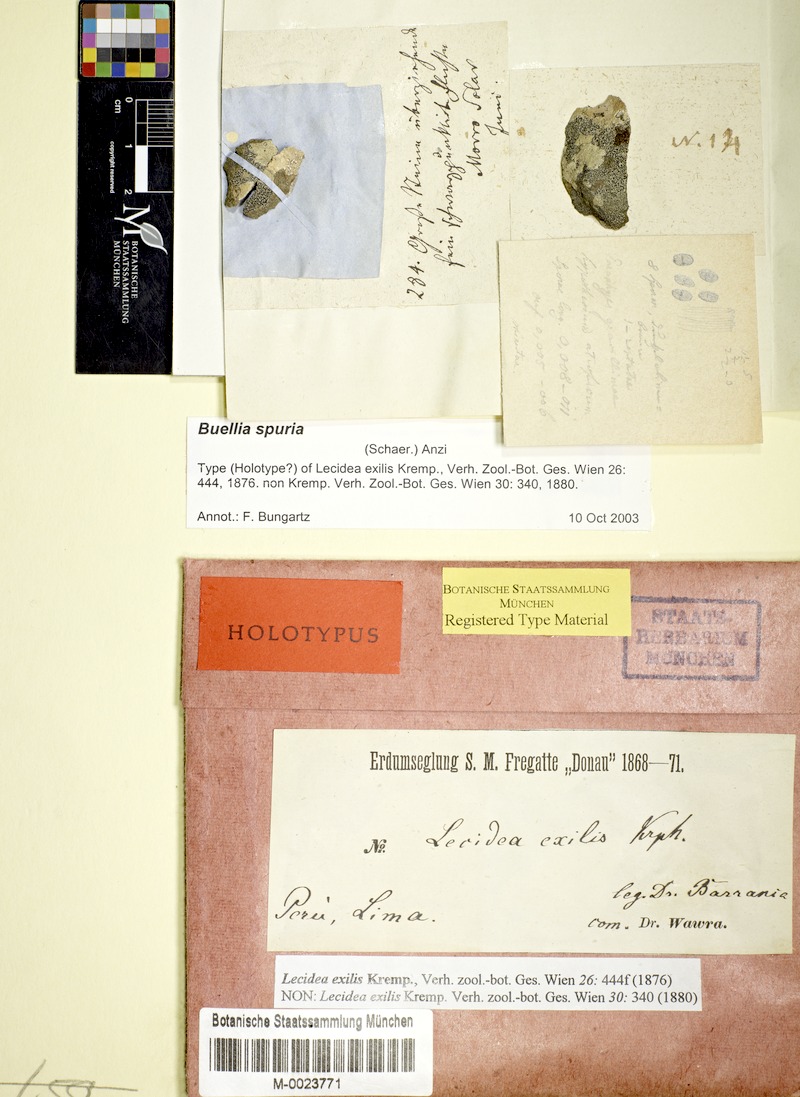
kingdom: Fungi
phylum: Ascomycota
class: Lecanoromycetes
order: Caliciales
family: Caliciaceae
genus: Buellia
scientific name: Buellia spuria
